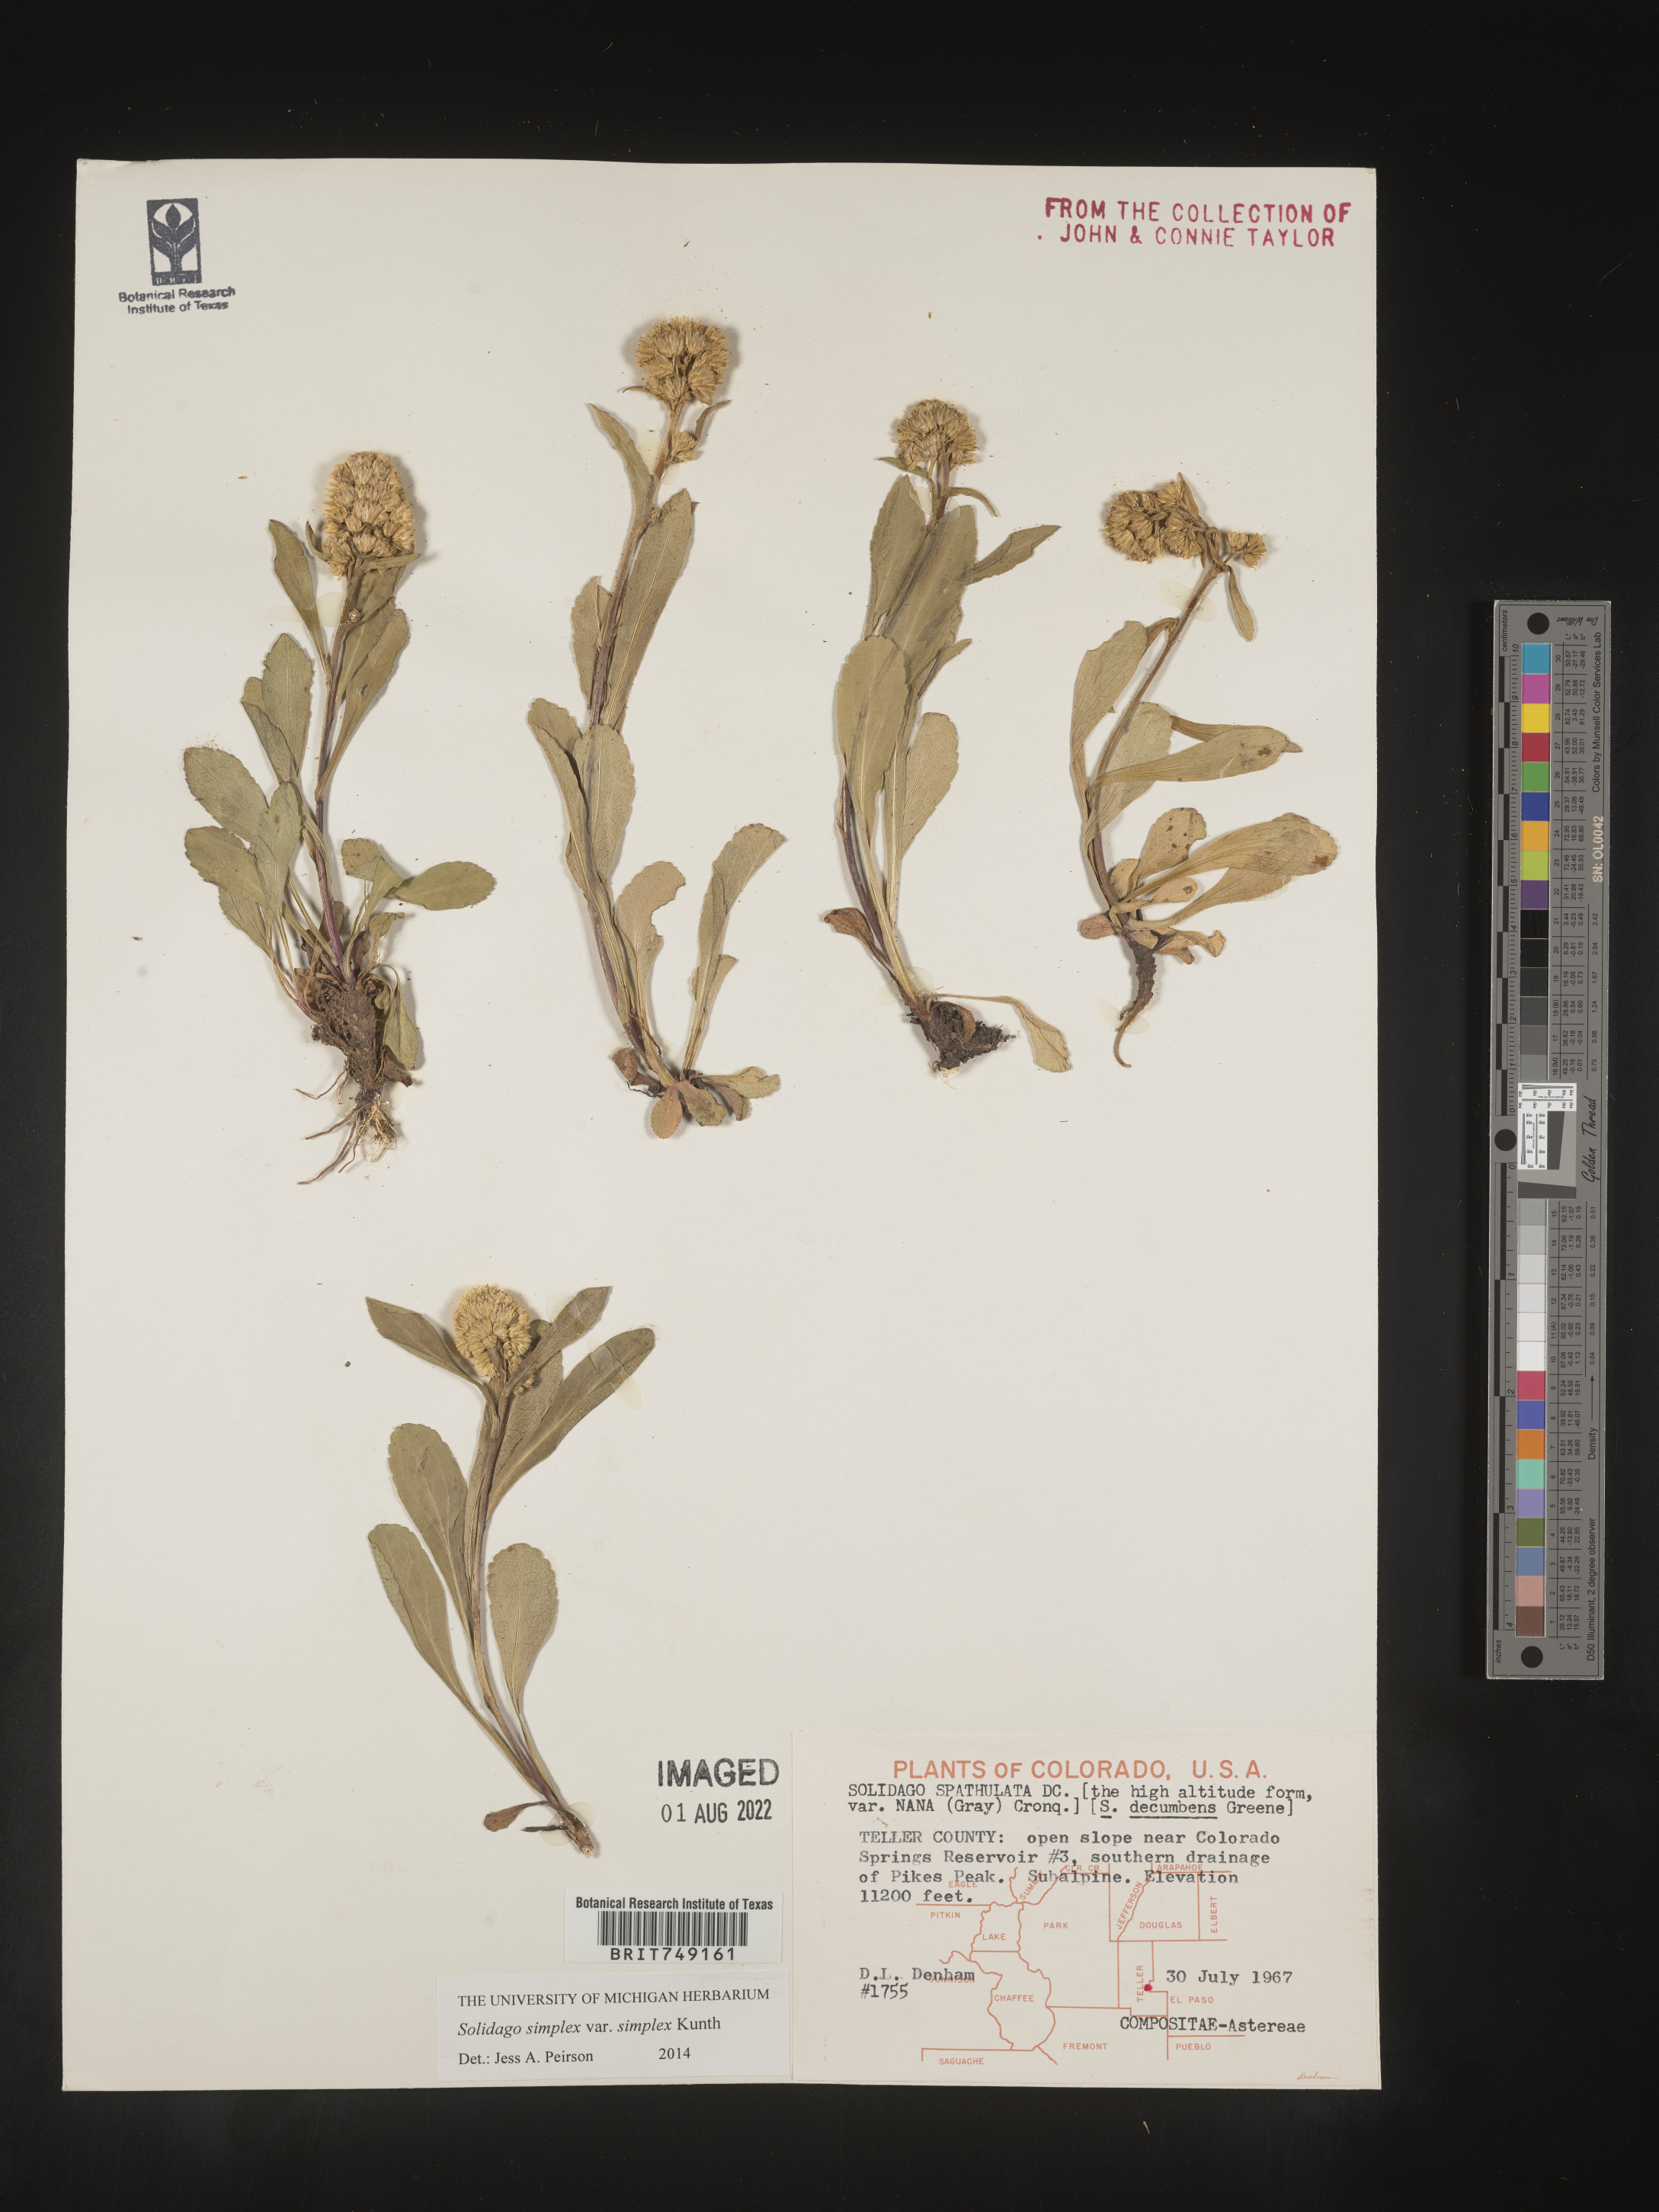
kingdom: Plantae
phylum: Tracheophyta
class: Magnoliopsida
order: Asterales
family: Asteraceae
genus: Solidago
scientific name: Solidago simplex
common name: Sticky goldenrod
